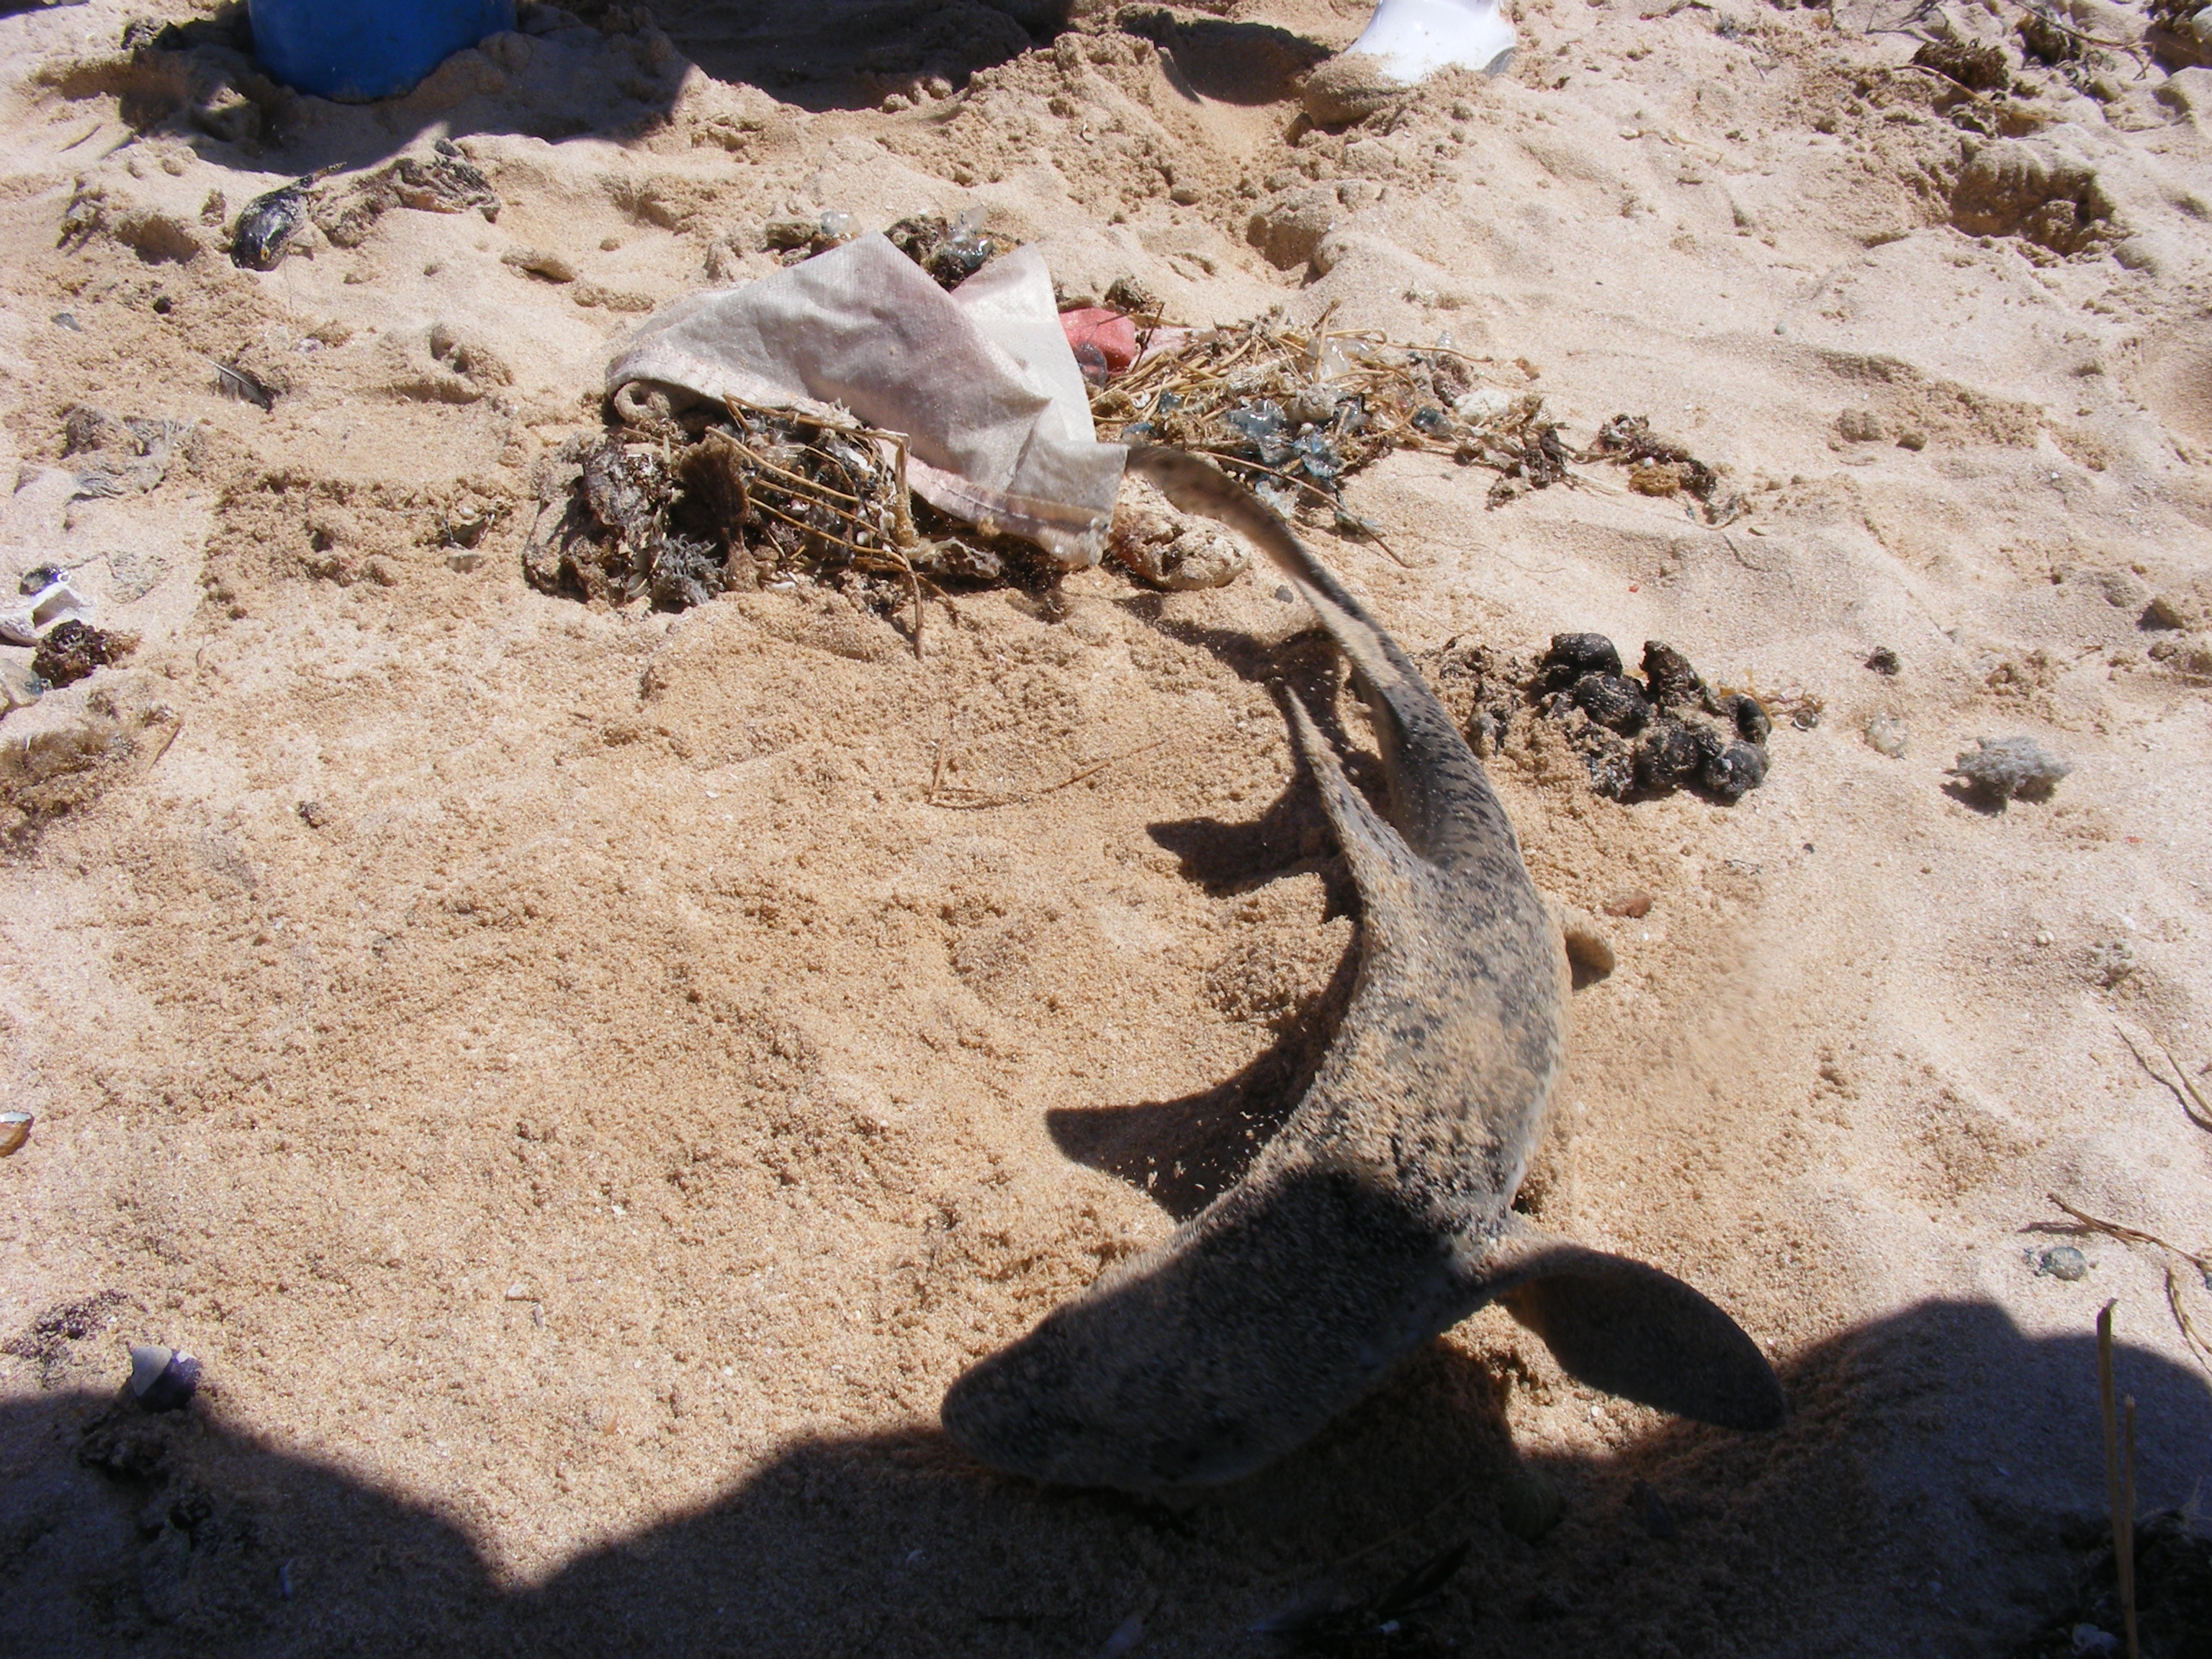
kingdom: Animalia
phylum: Chordata
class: Elasmobranchii
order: Carcharhiniformes
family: Triakidae
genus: Triakis
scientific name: Triakis megalopterus
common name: Spotted gully shark
